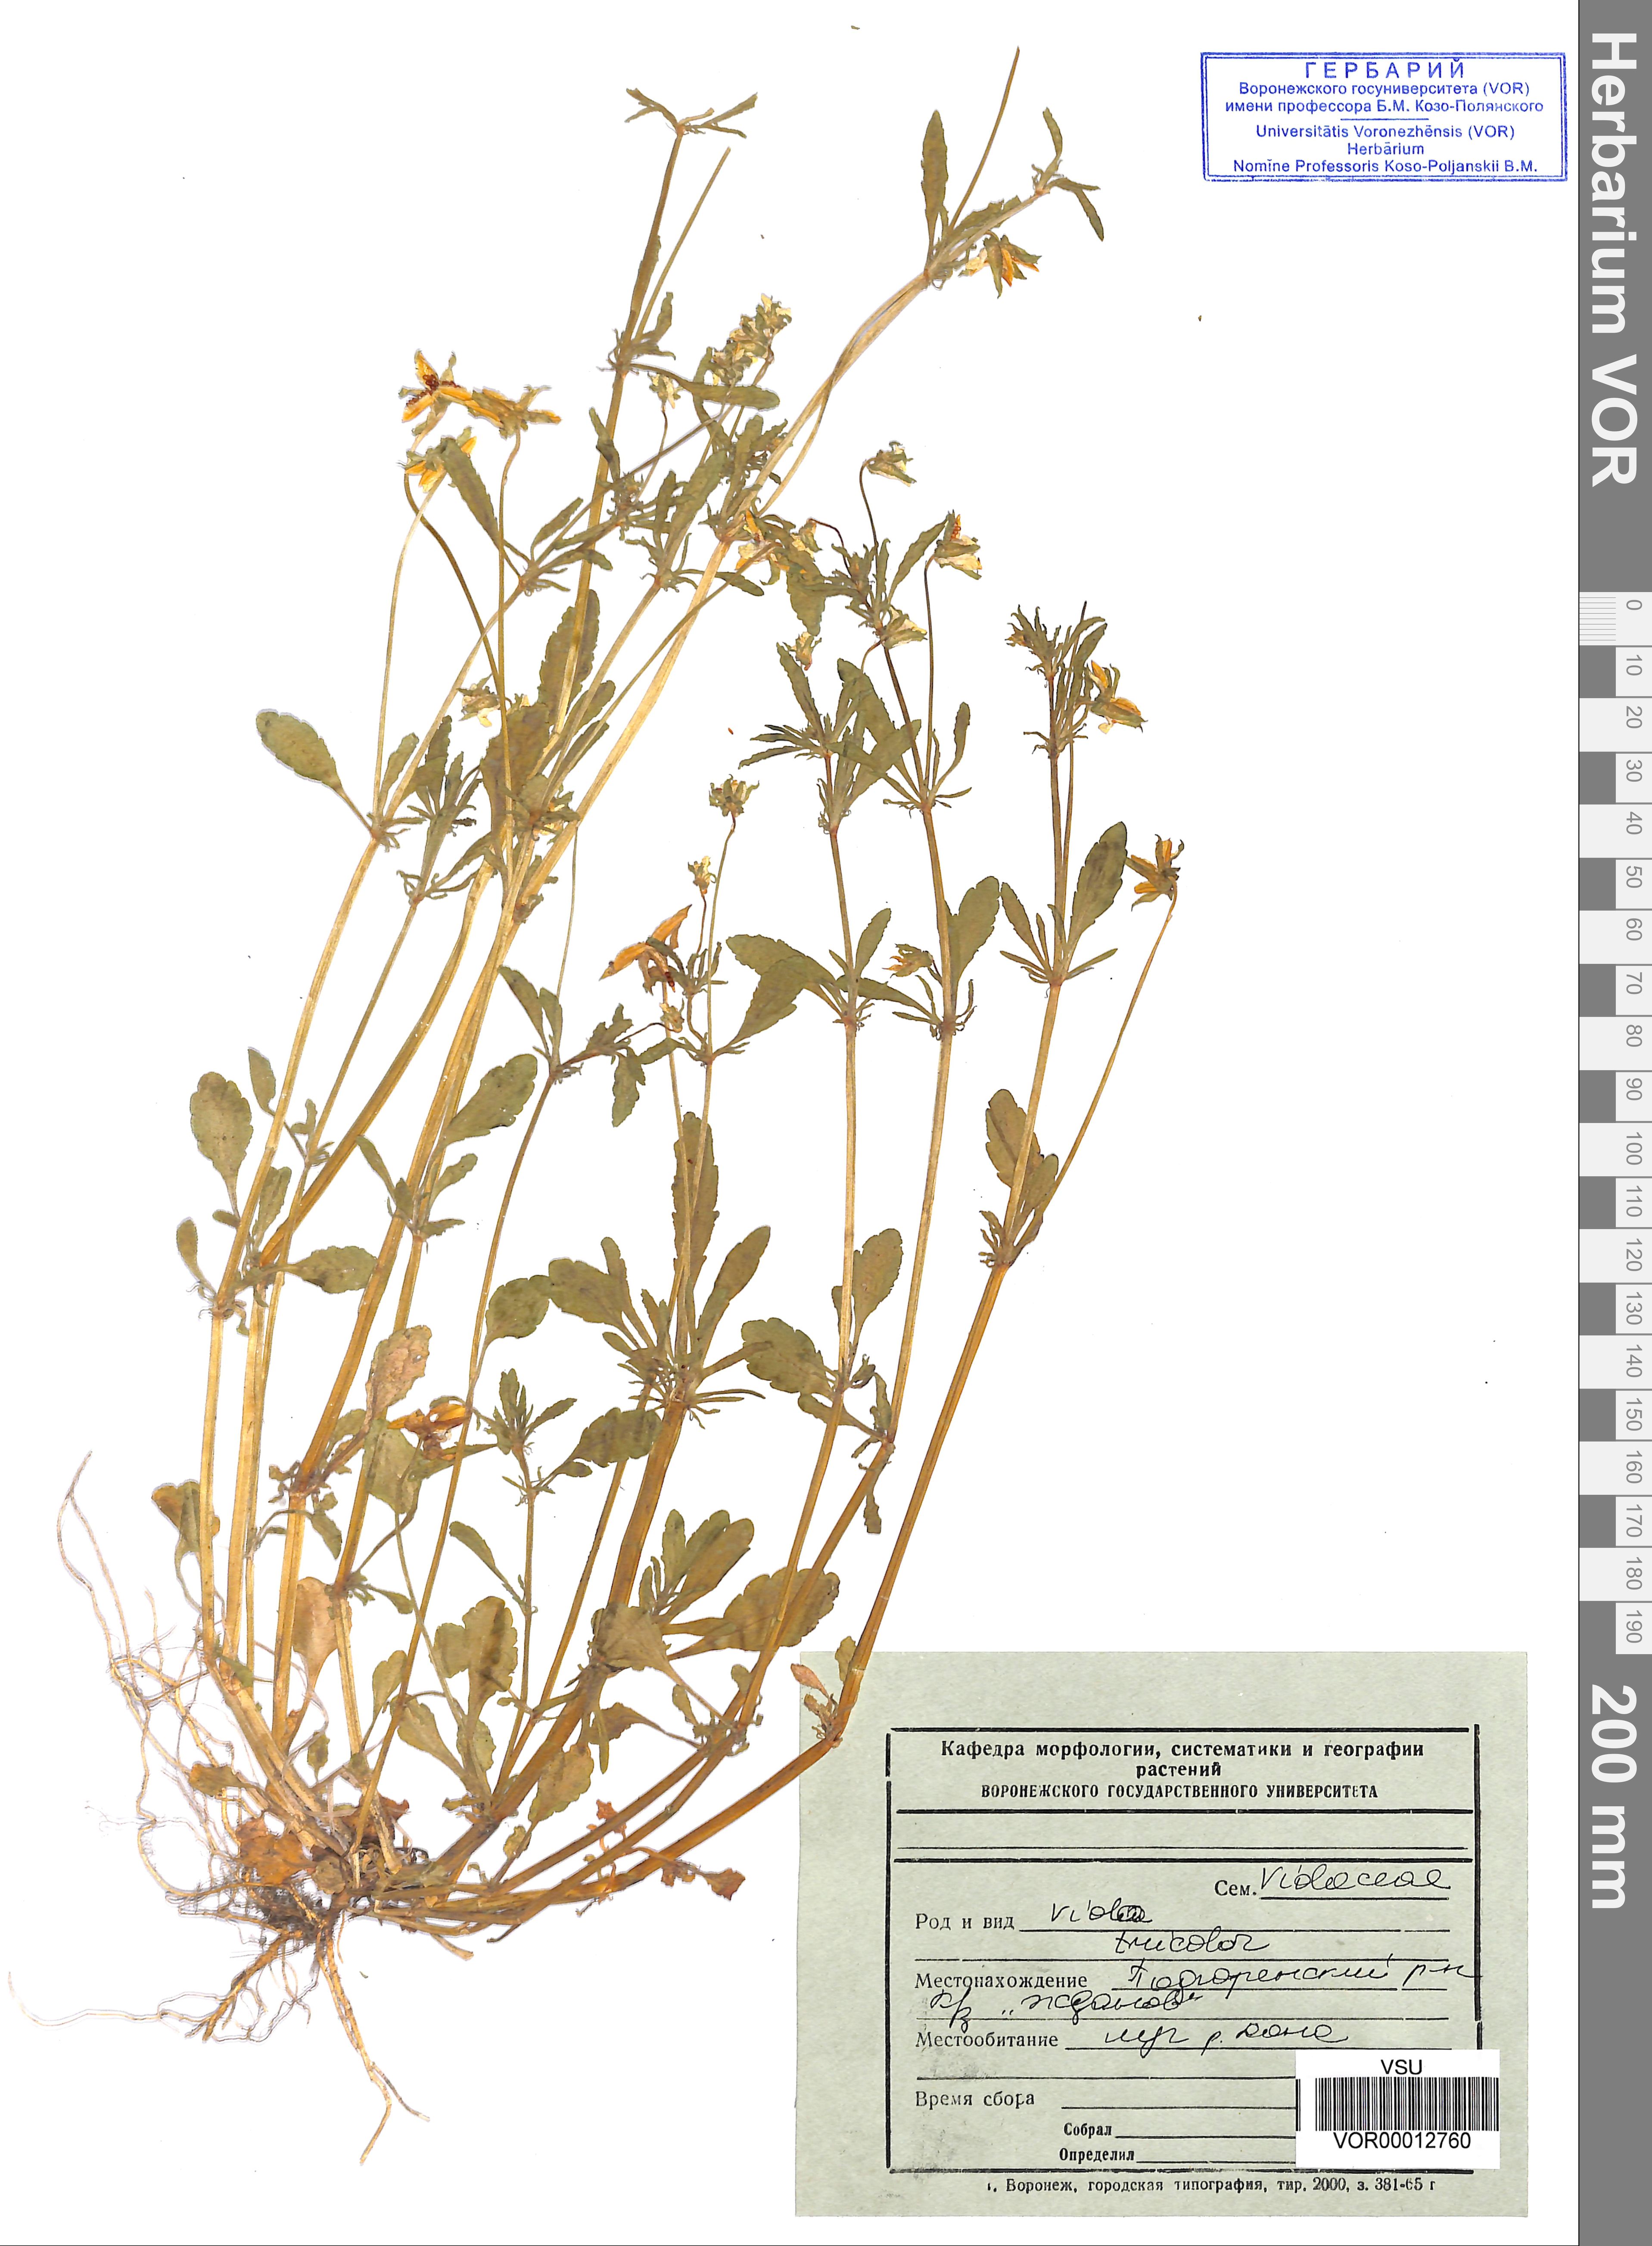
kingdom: Plantae
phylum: Tracheophyta
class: Magnoliopsida
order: Malpighiales
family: Violaceae
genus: Viola
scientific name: Viola tricolor
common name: Pansy
